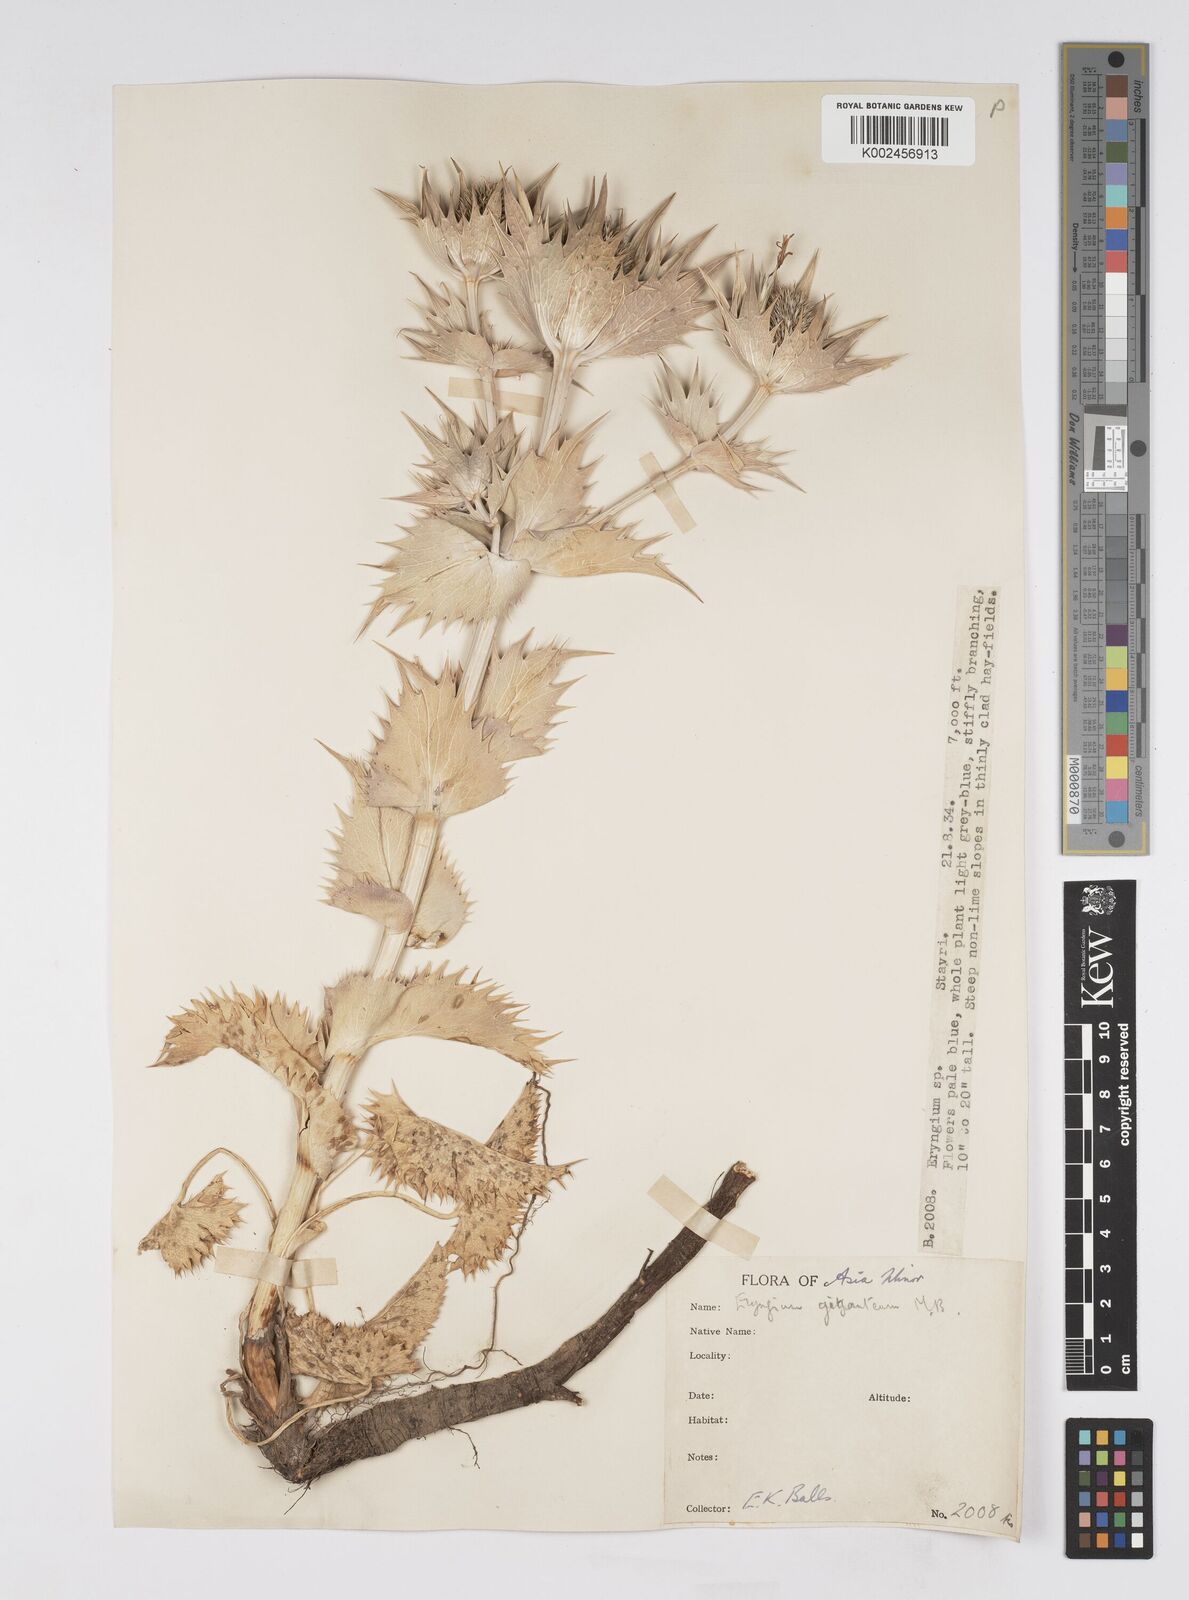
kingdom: Plantae
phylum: Tracheophyta
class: Magnoliopsida
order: Apiales
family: Apiaceae
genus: Eryngium
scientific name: Eryngium giganteum
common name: Tall eryngo
